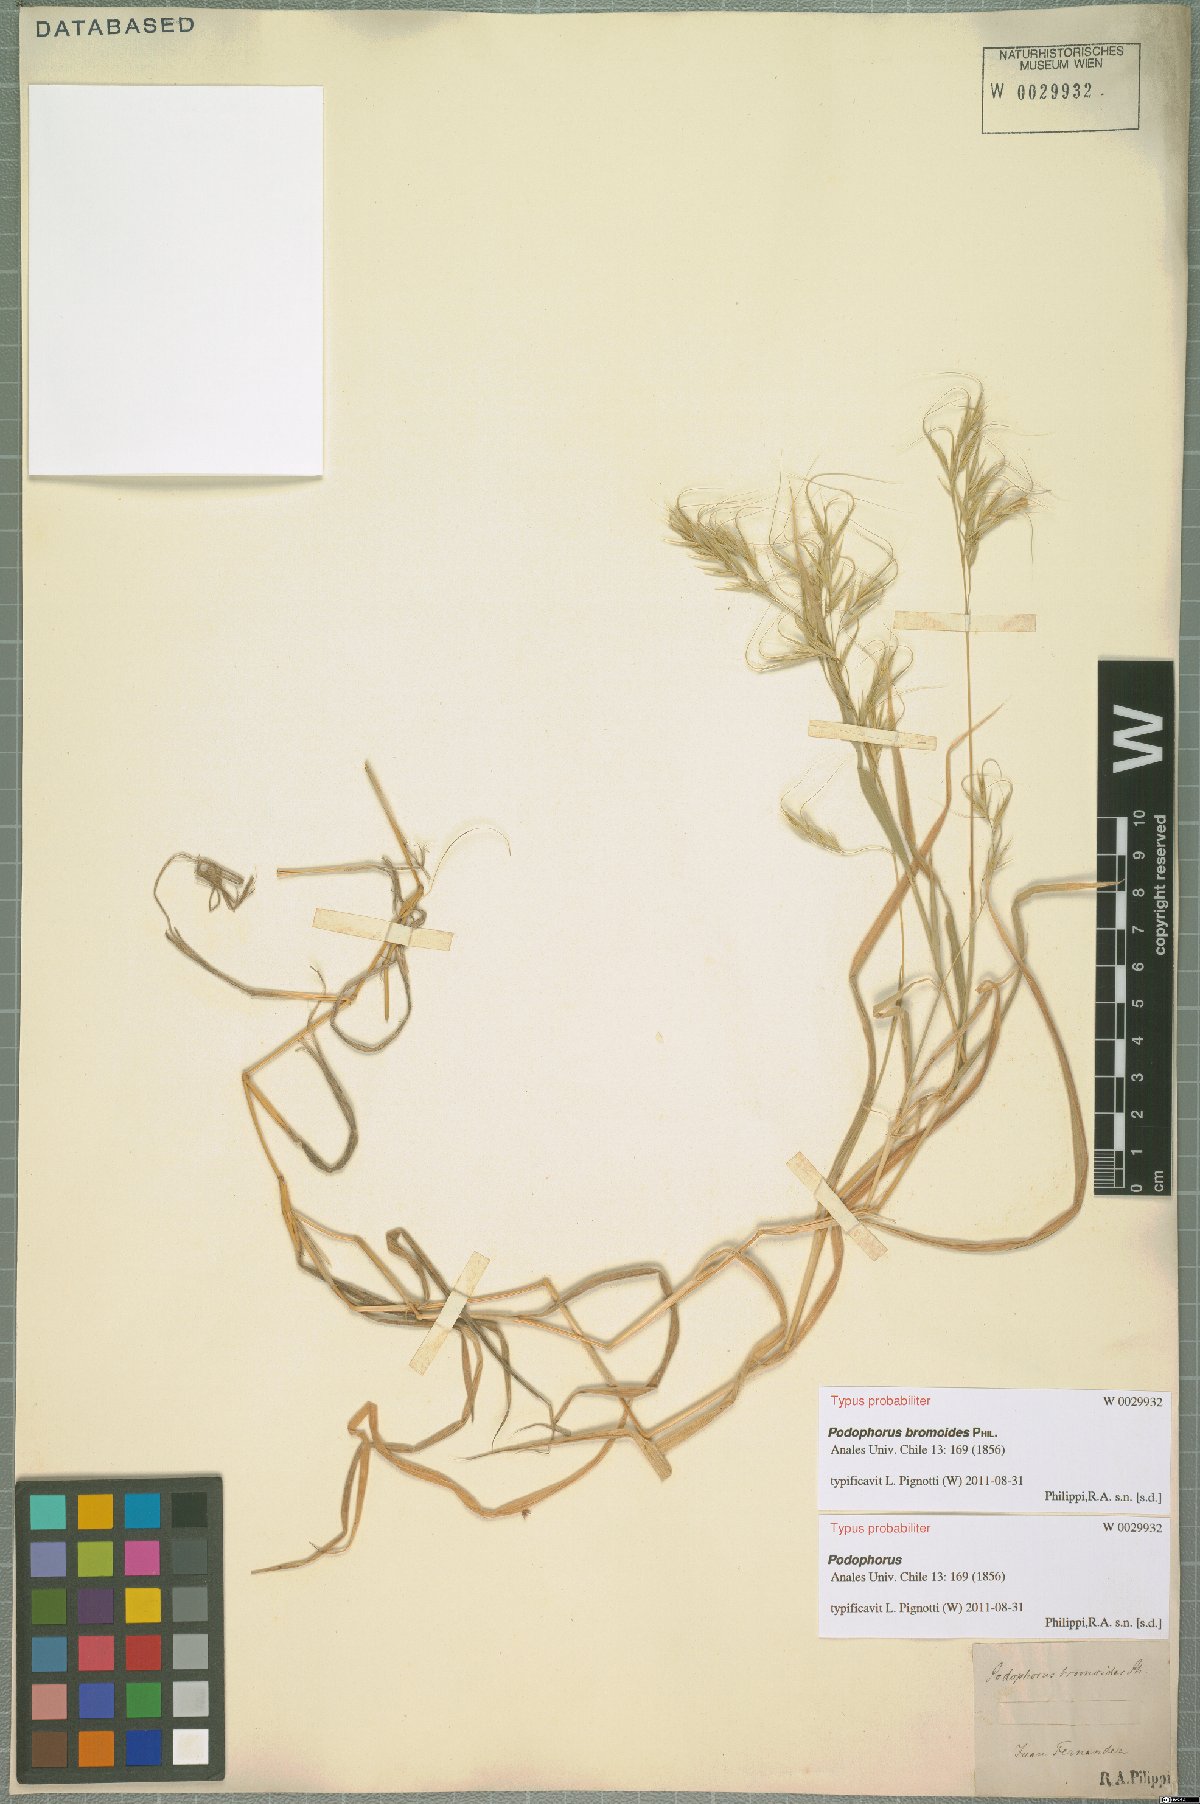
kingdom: Plantae
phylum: Tracheophyta
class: Liliopsida
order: Poales
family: Poaceae
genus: Festuca
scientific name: Festuca masatierrae
